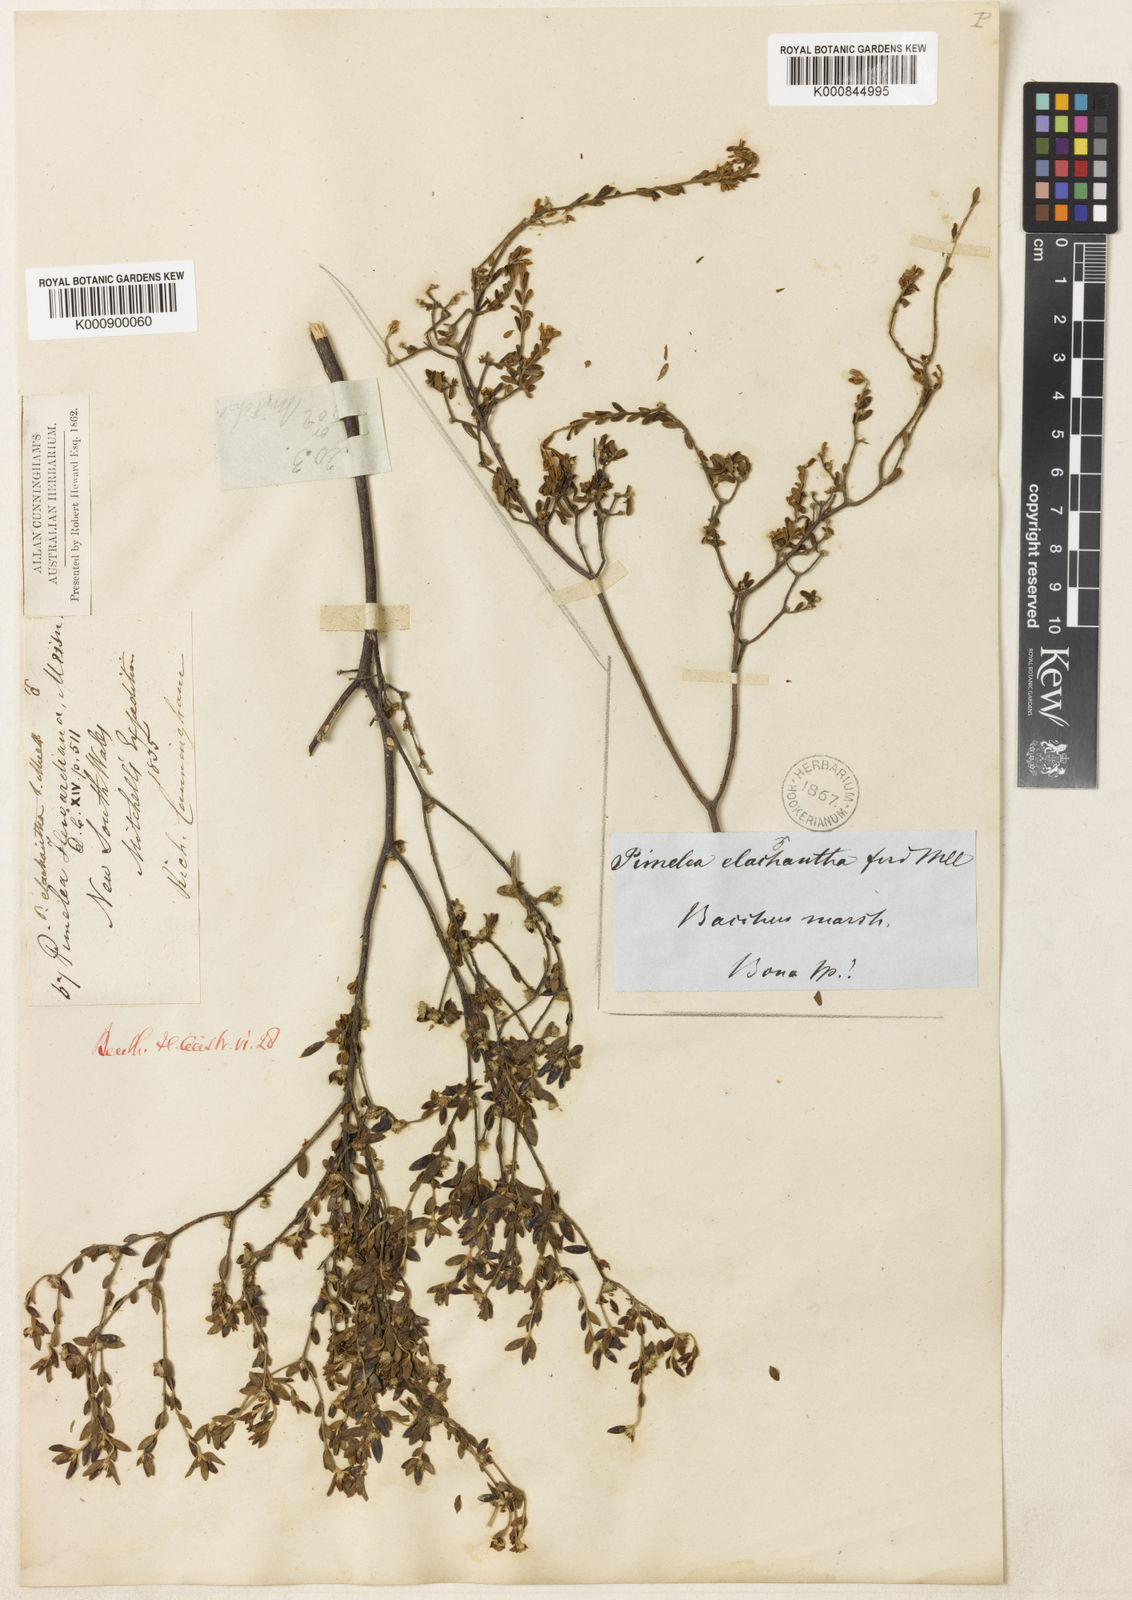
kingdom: Plantae
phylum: Tracheophyta
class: Magnoliopsida
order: Malvales
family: Thymelaeaceae
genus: Pimelea
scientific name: Pimelea hewardiana
